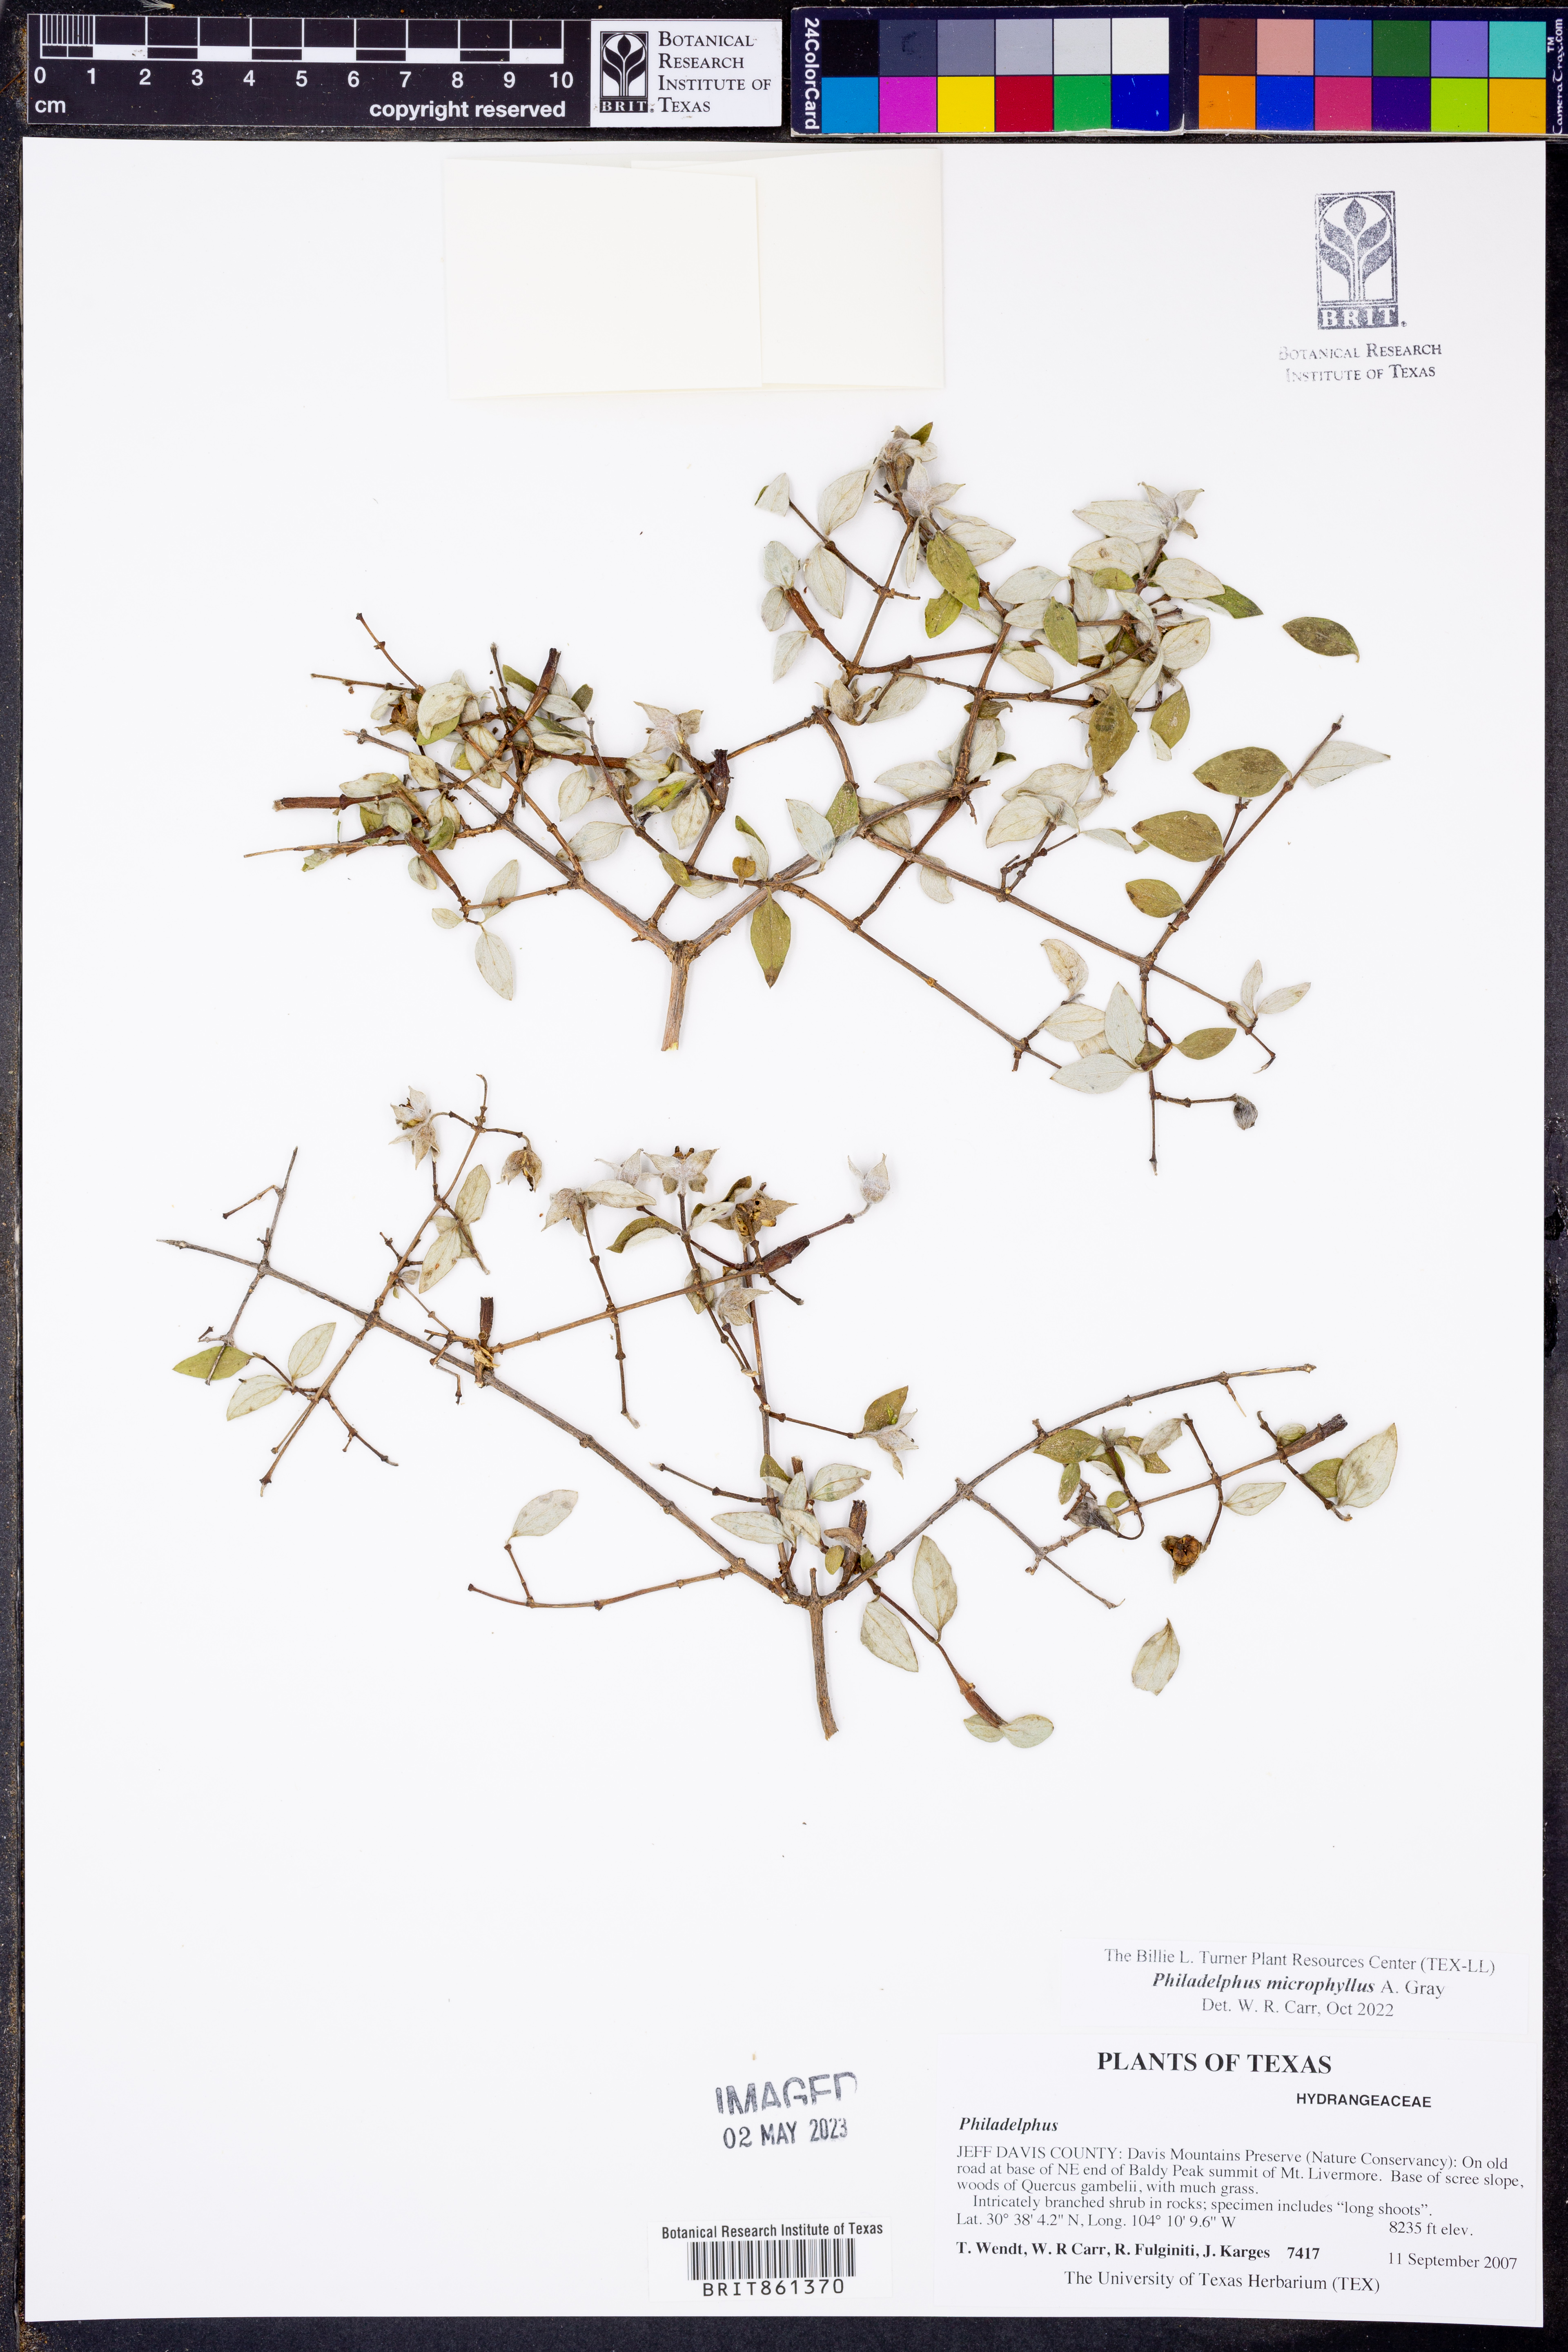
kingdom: Plantae
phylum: Tracheophyta
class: Magnoliopsida
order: Cornales
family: Hydrangeaceae
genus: Philadelphus
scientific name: Philadelphus microphyllus
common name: Desert mock orange
